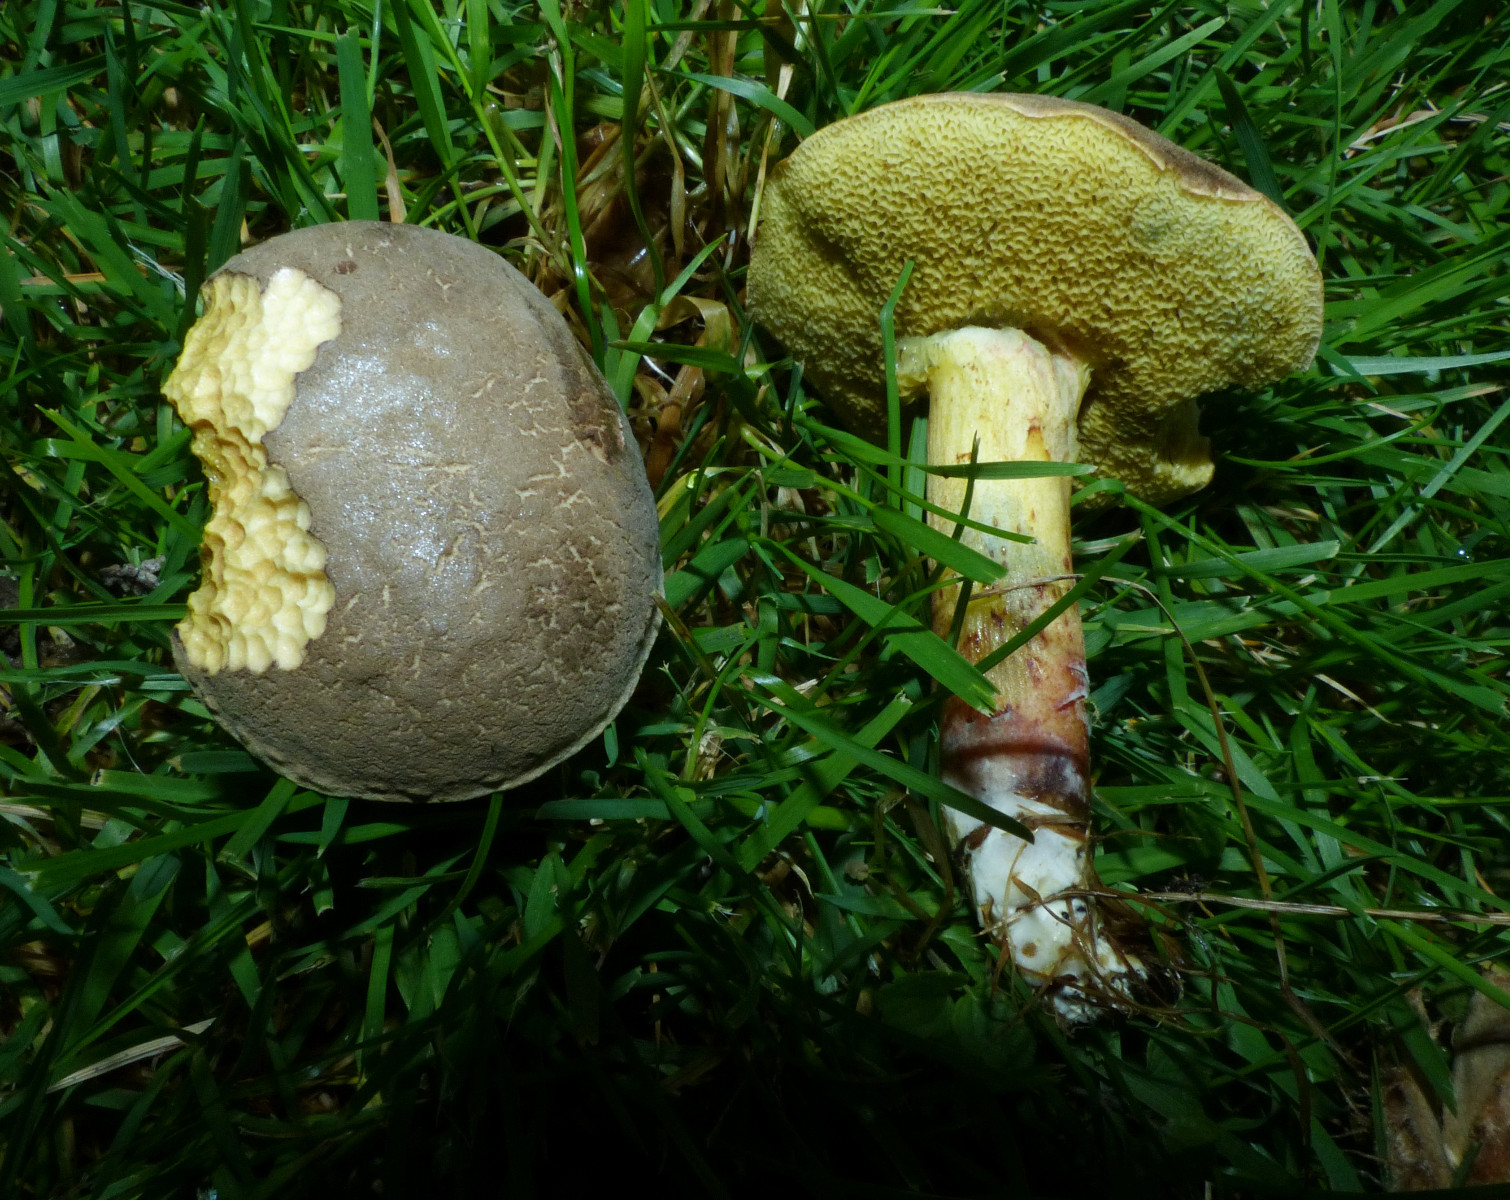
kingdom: Fungi
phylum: Basidiomycota
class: Agaricomycetes
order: Boletales
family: Boletaceae
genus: Xerocomellus
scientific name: Xerocomellus cisalpinus
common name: finsprukken rørhat
